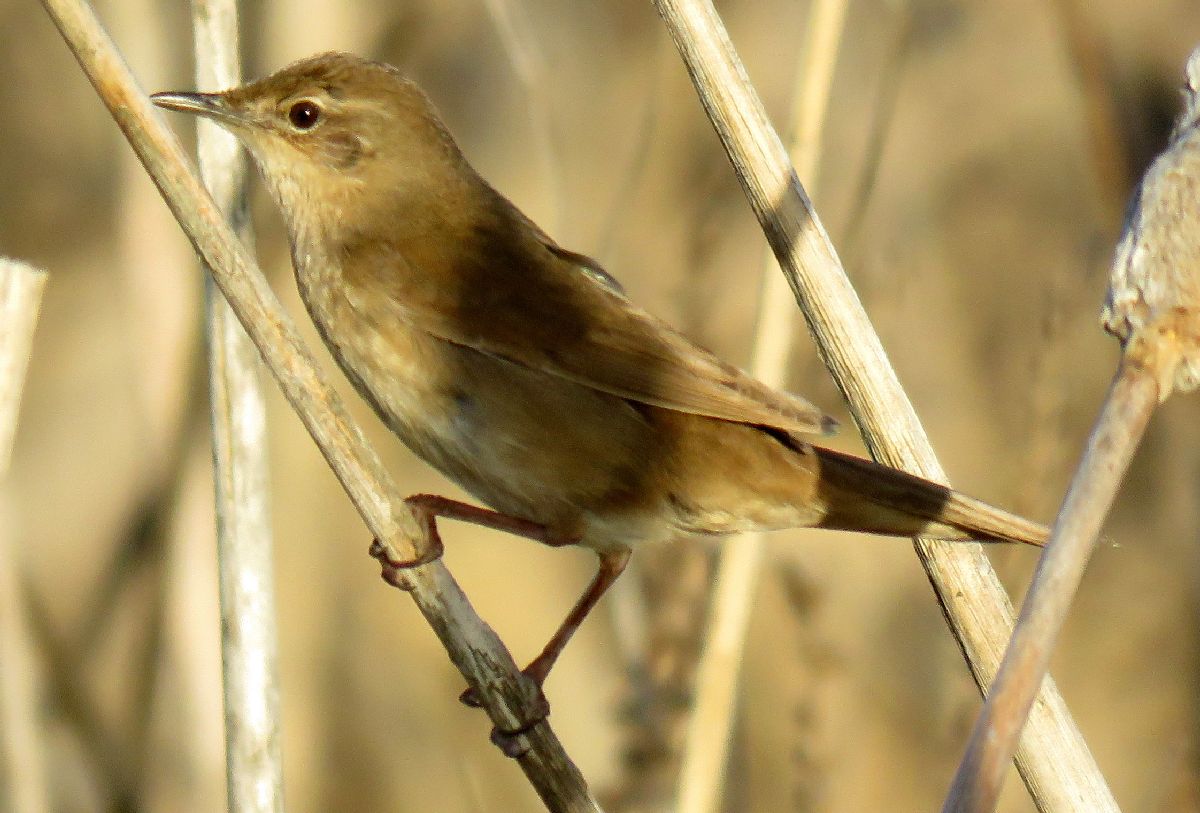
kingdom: Animalia
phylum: Chordata
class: Aves
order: Passeriformes
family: Locustellidae
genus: Locustella
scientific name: Locustella luscinioides
